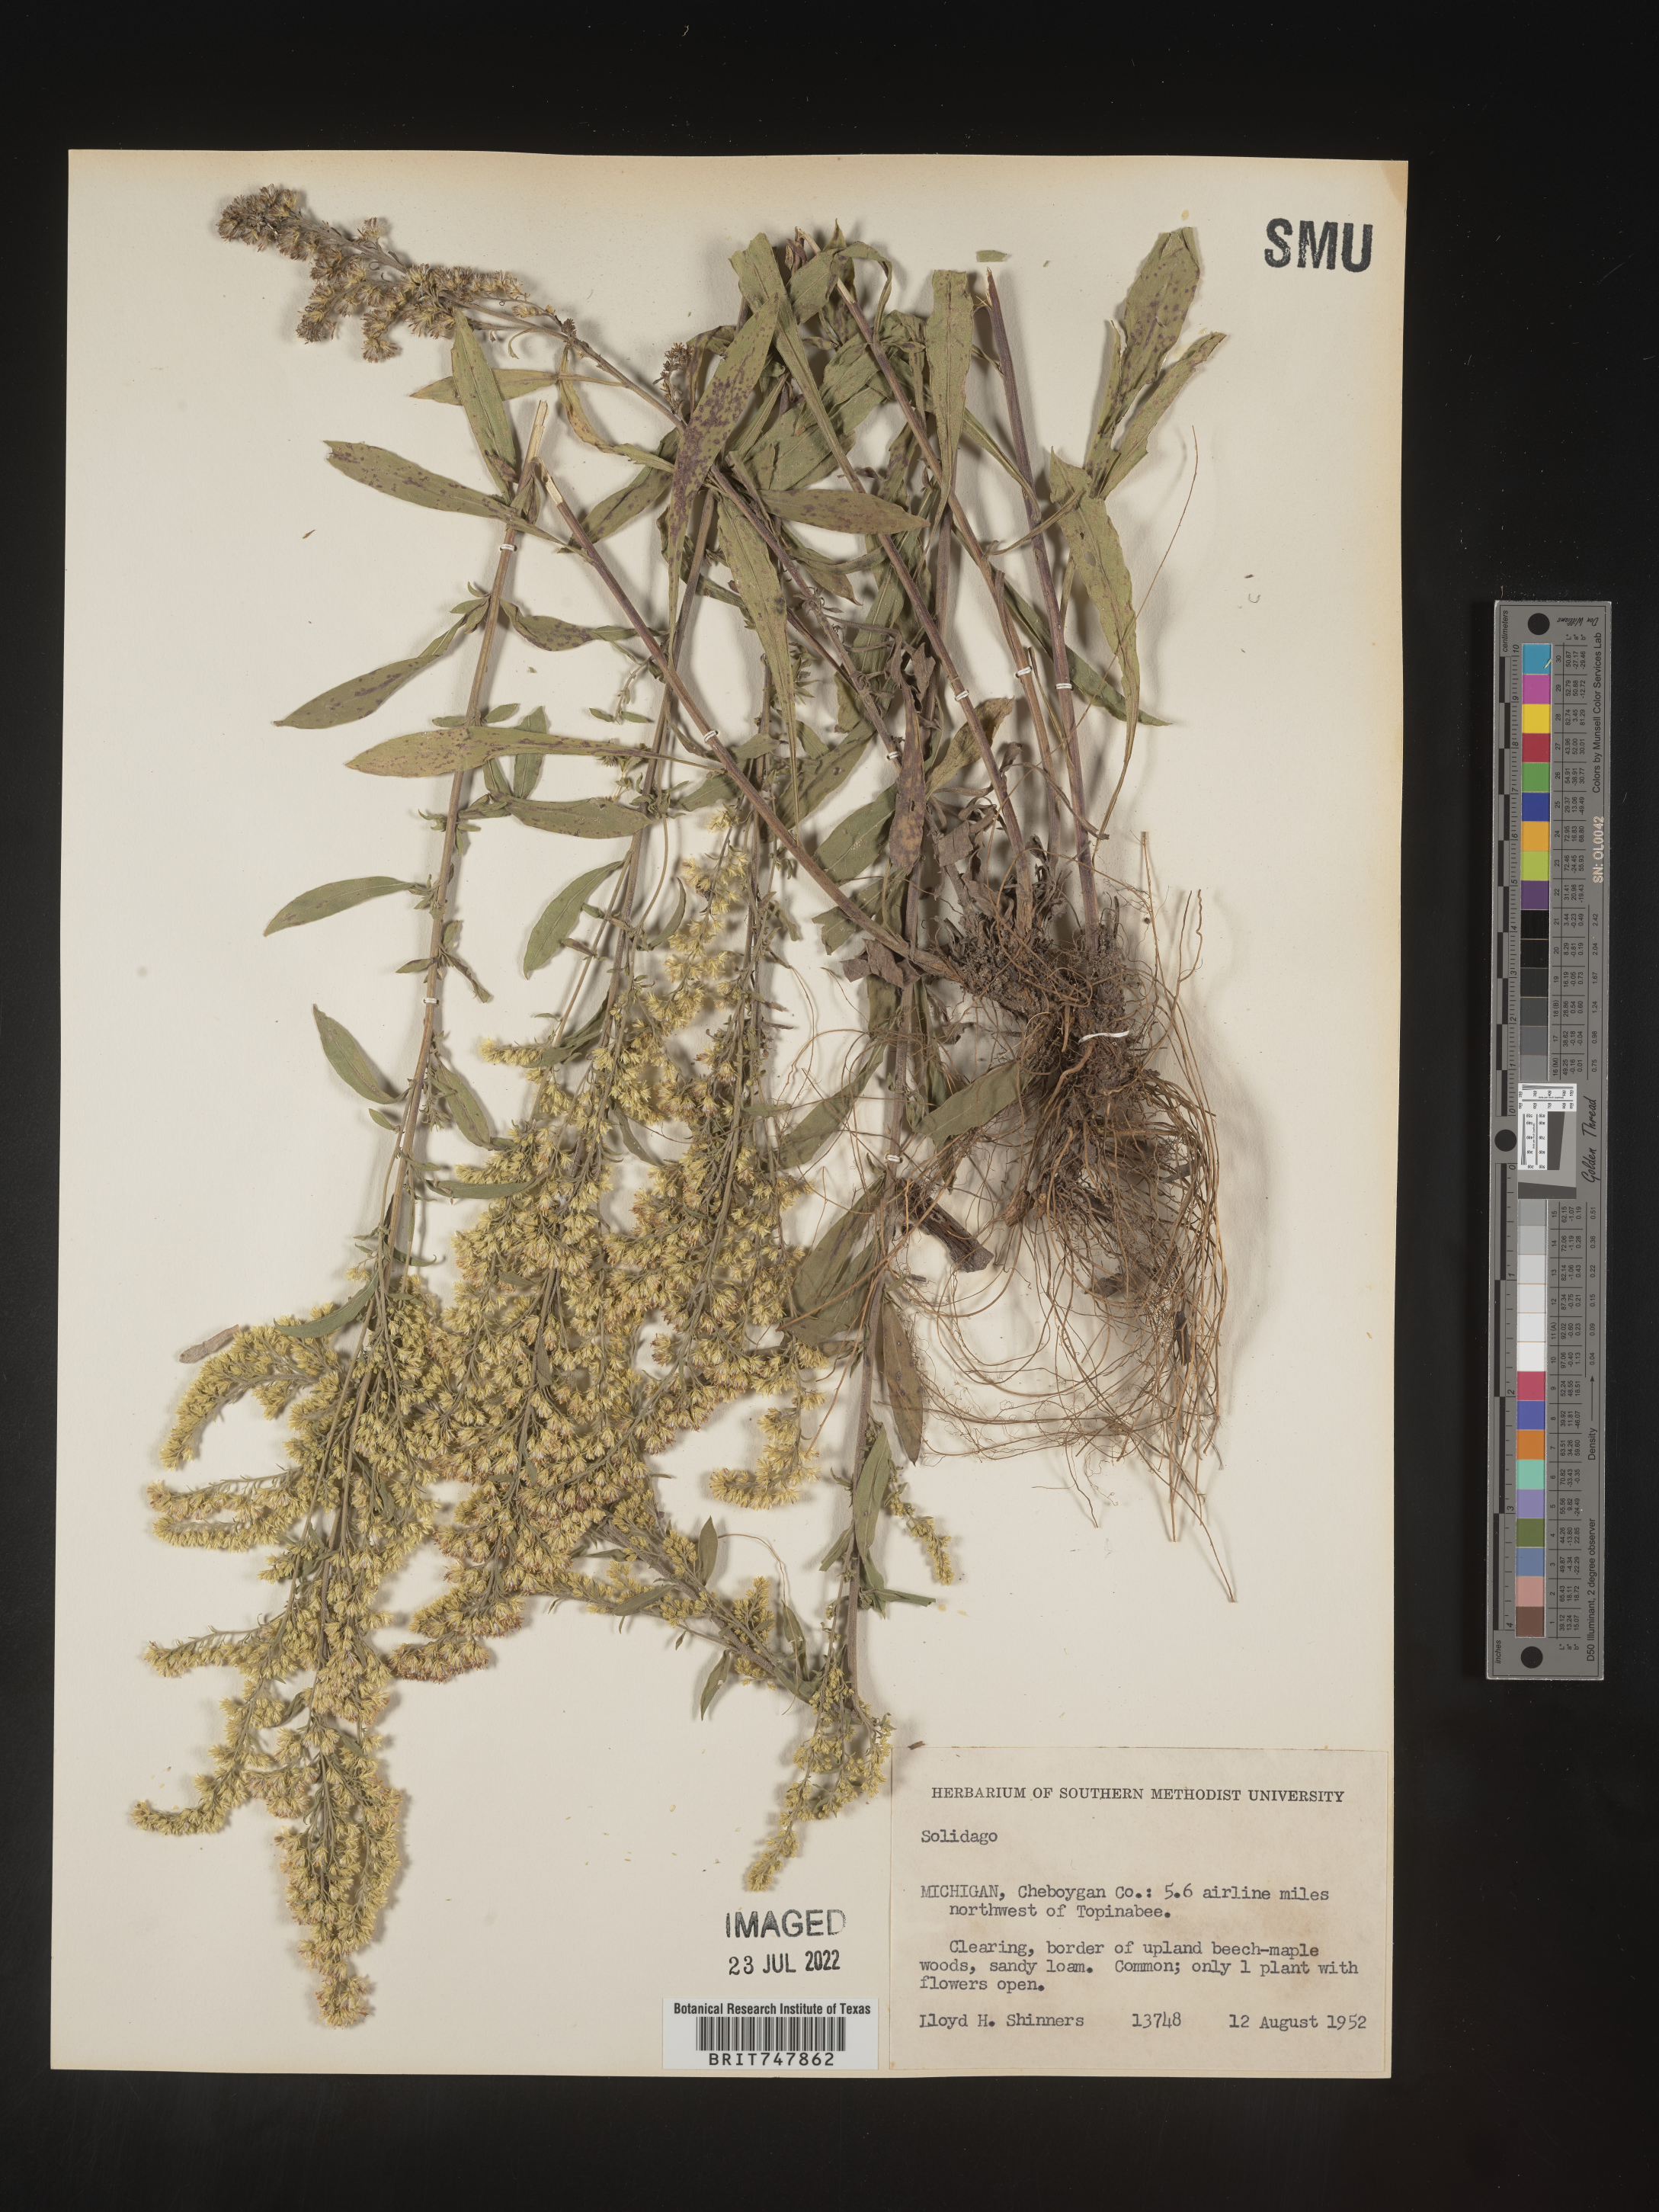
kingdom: Plantae
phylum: Tracheophyta
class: Magnoliopsida
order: Asterales
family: Asteraceae
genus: Solidago
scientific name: Solidago nemoralis
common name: Grey goldenrod
